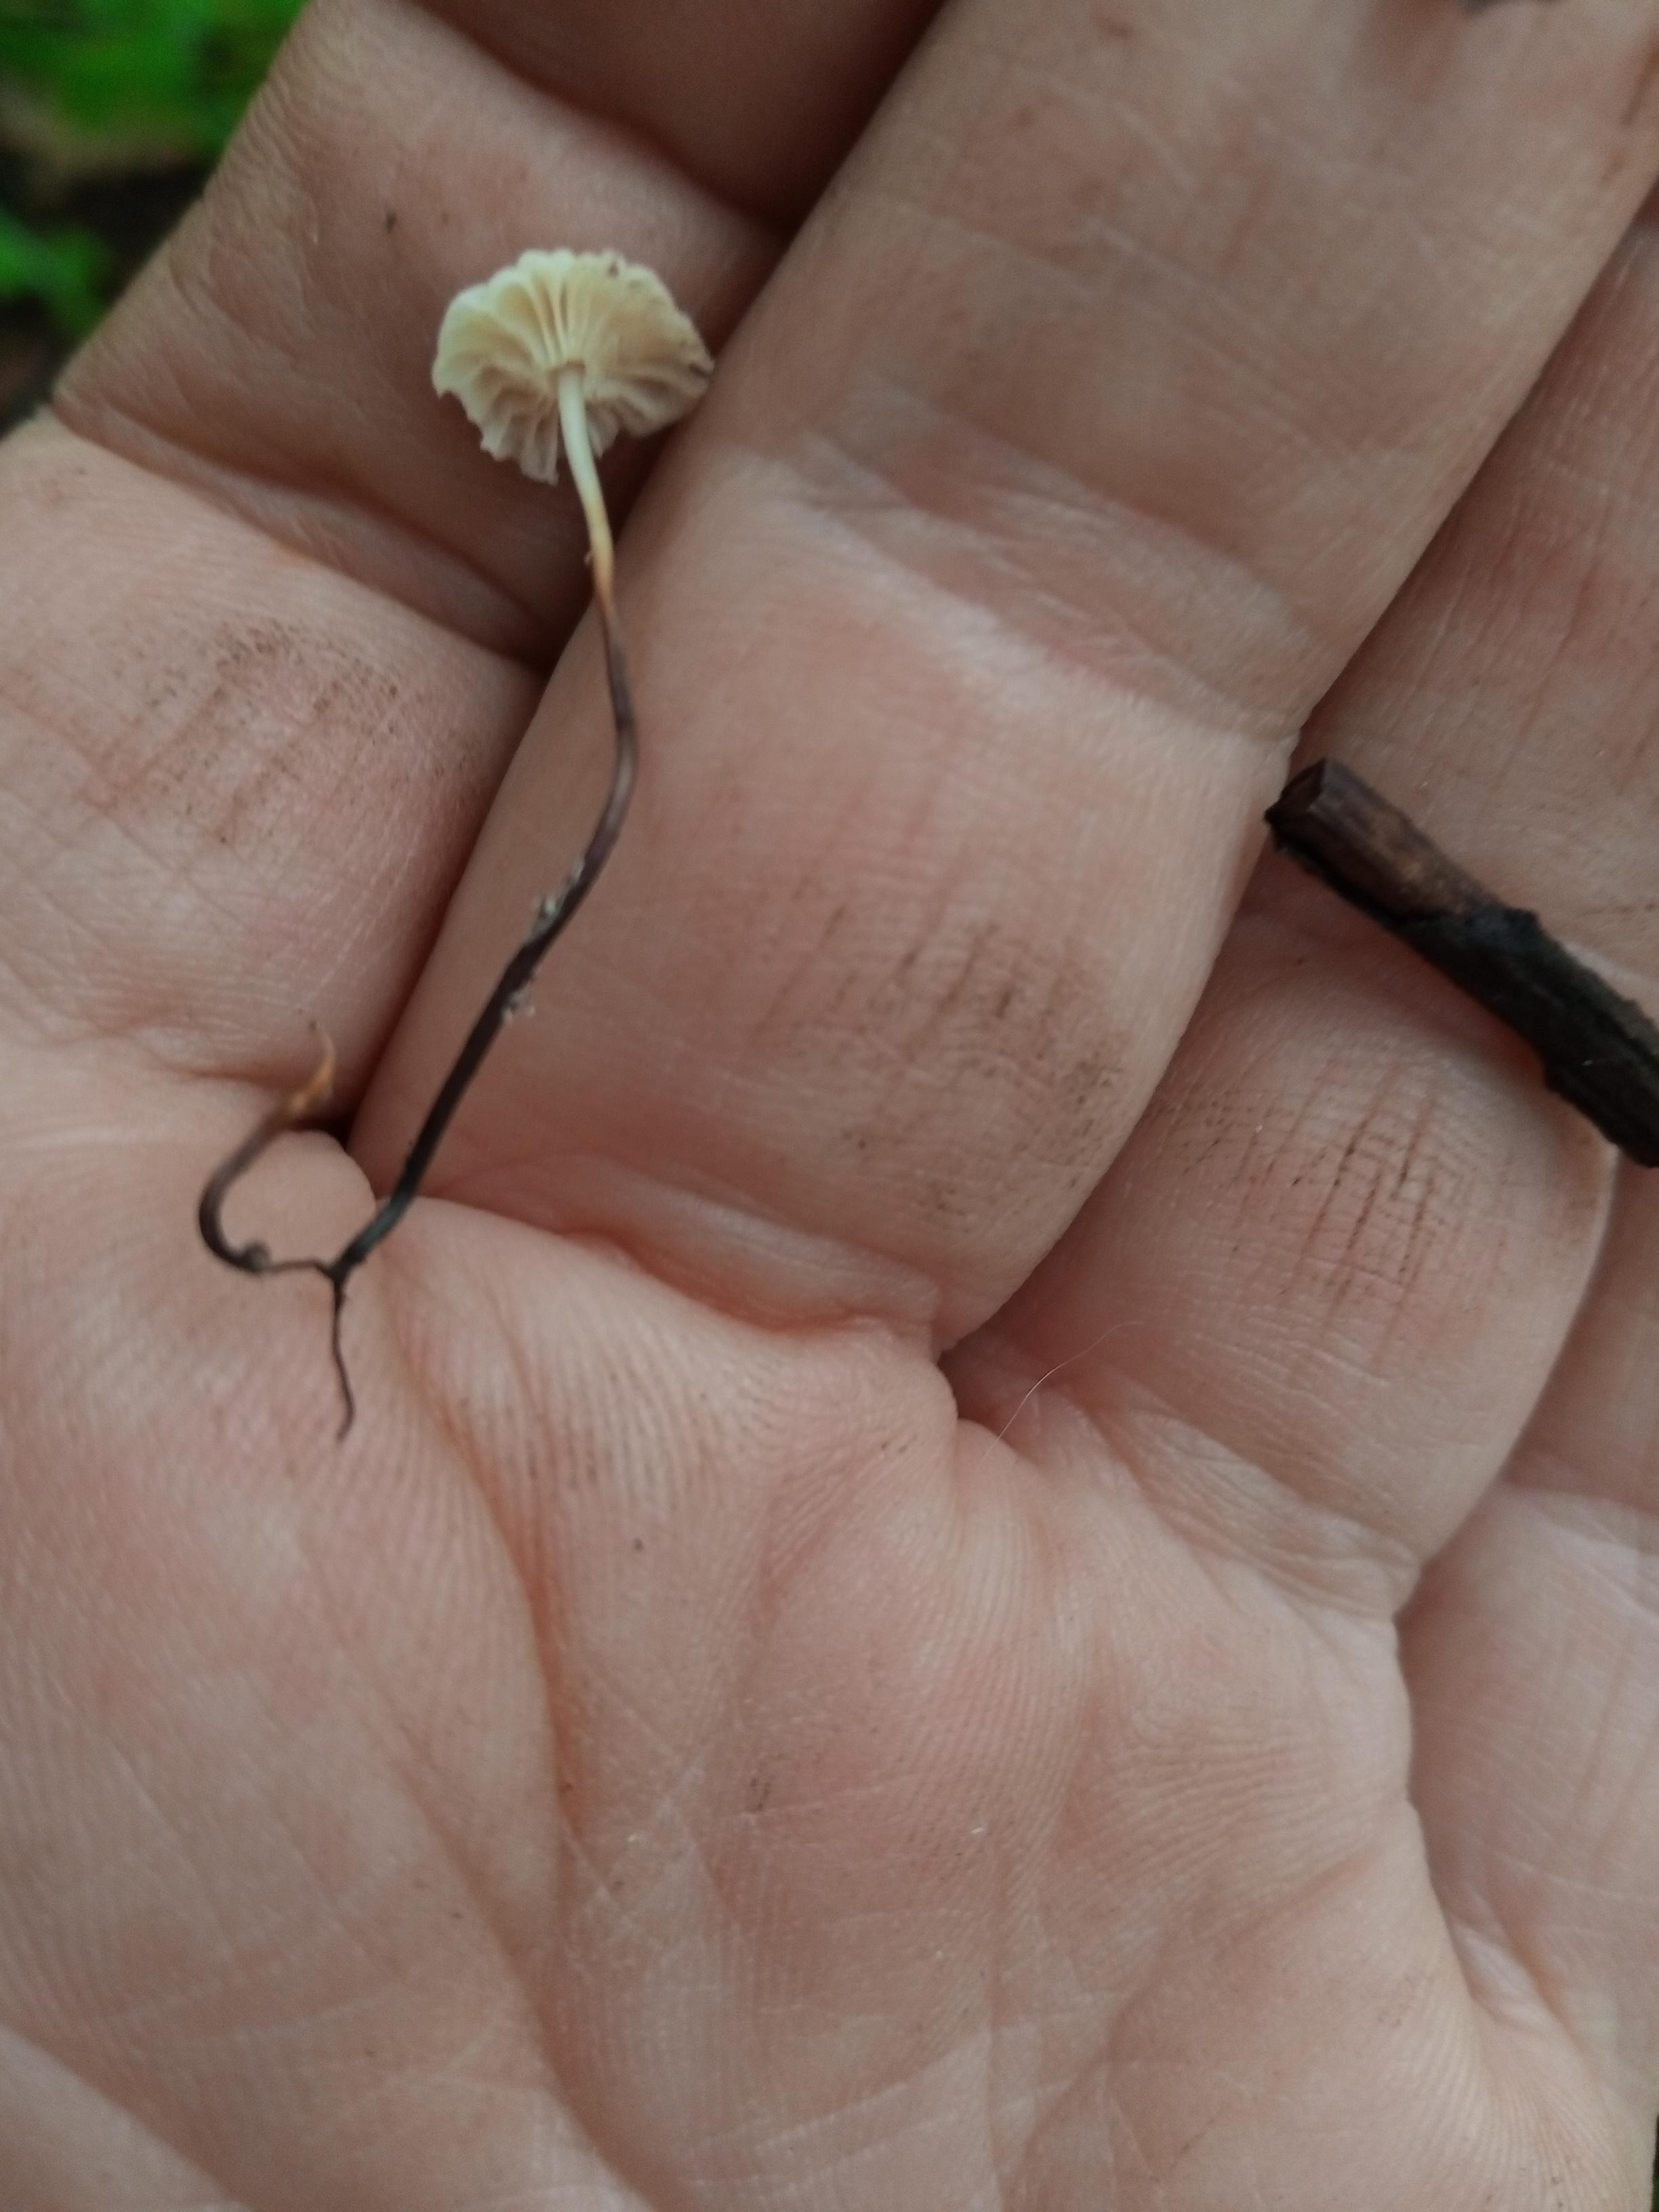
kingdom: Fungi
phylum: Basidiomycota
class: Agaricomycetes
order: Agaricales
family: Marasmiaceae
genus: Marasmius
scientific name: Marasmius rotula
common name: hjul-bruskhat
